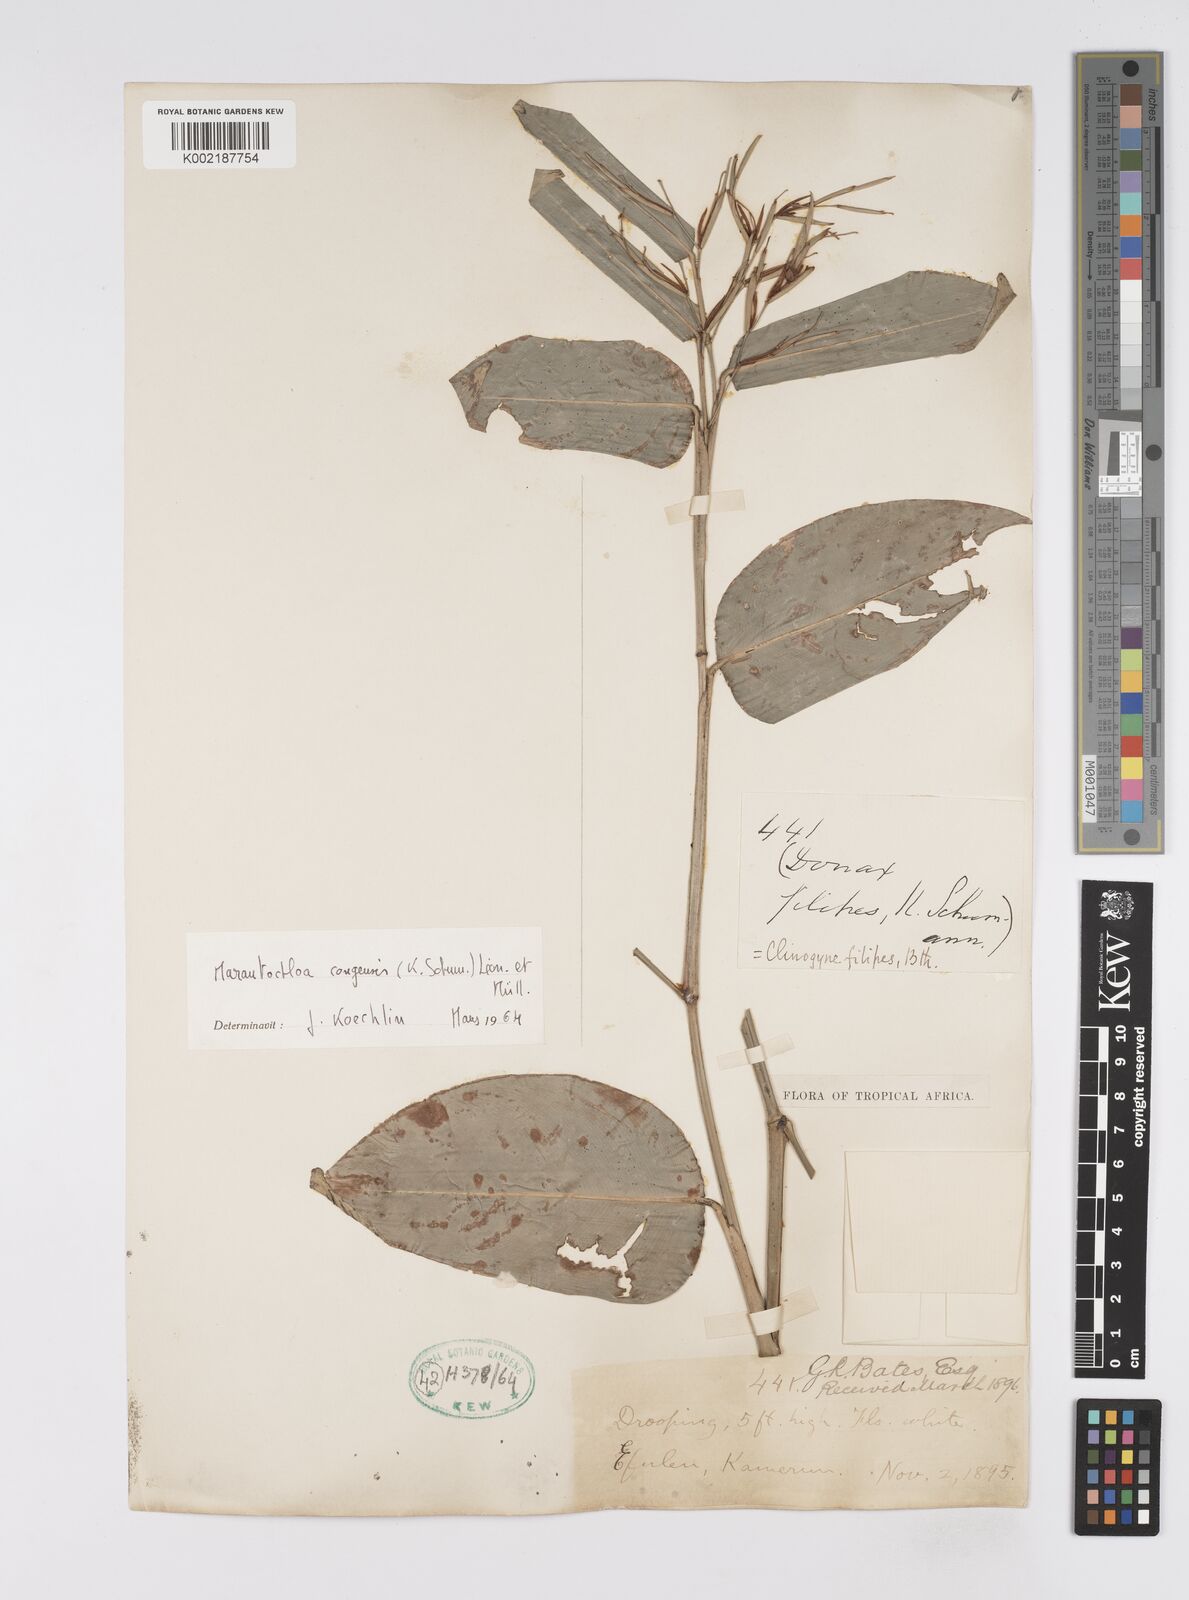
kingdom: Plantae
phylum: Tracheophyta
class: Liliopsida
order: Zingiberales
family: Marantaceae
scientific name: Marantaceae
